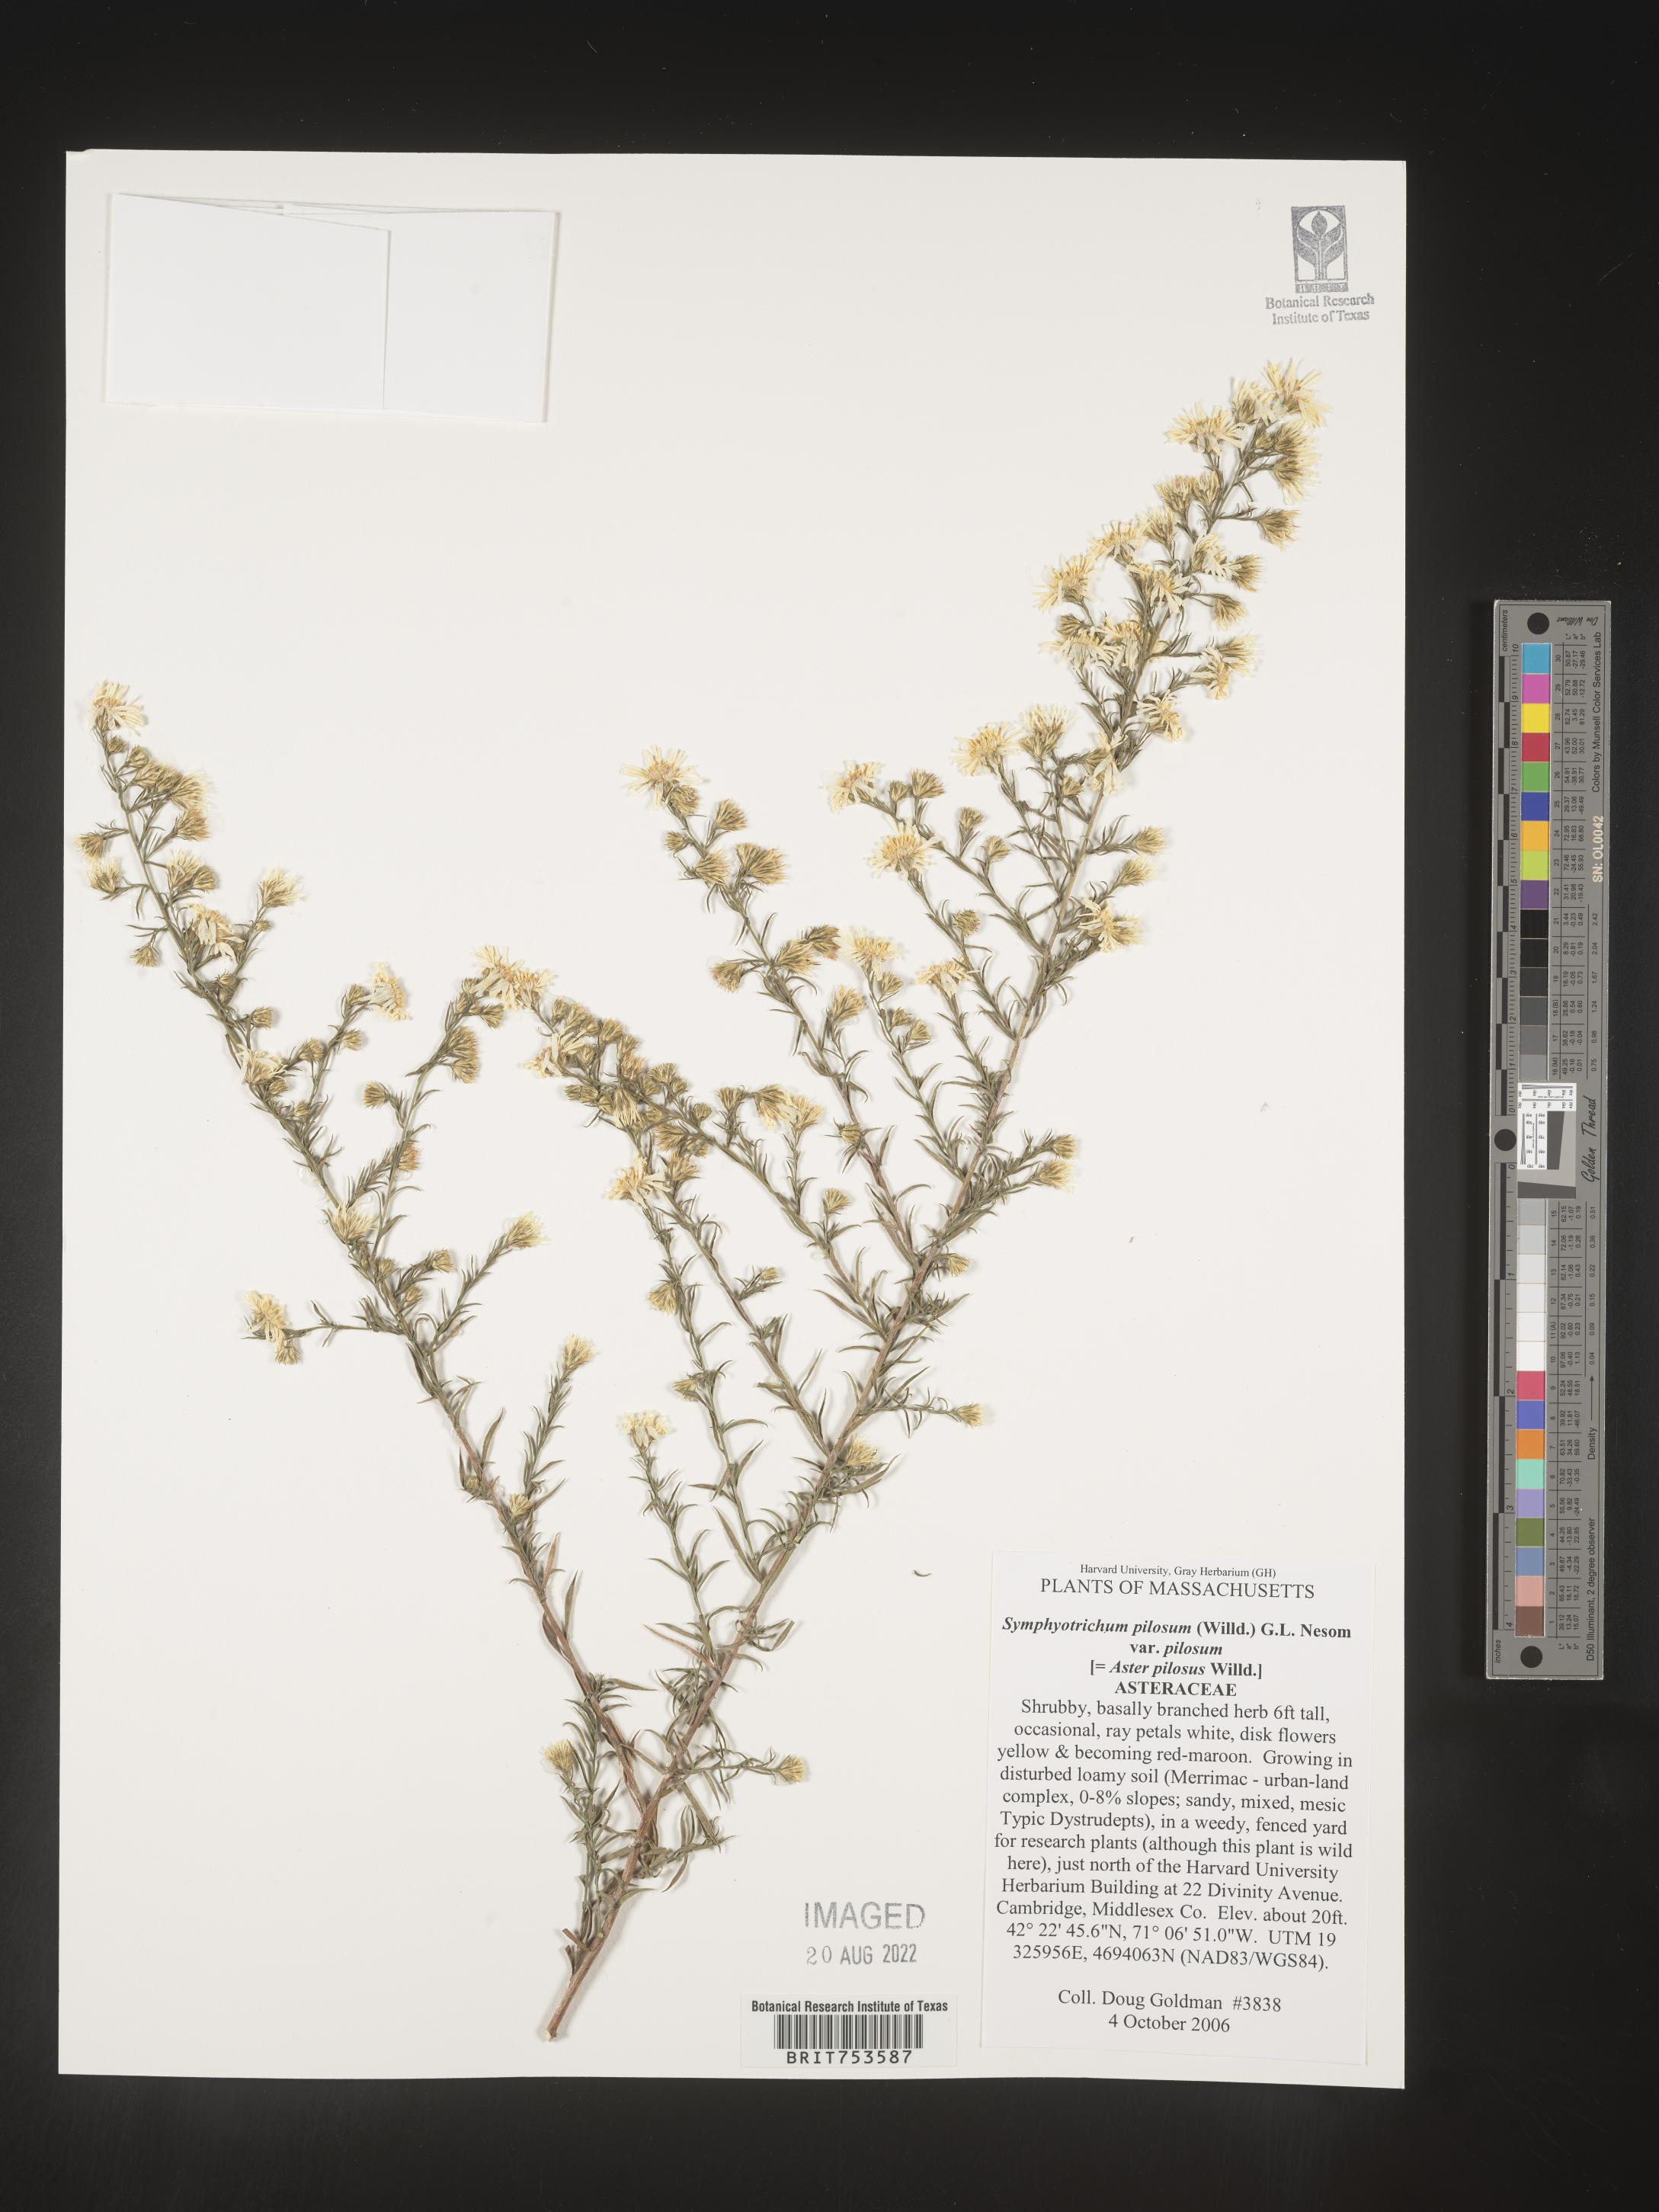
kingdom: Plantae
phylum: Tracheophyta
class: Magnoliopsida
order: Asterales
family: Asteraceae
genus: Symphyotrichum
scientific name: Symphyotrichum pilosum
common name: Awl aster
